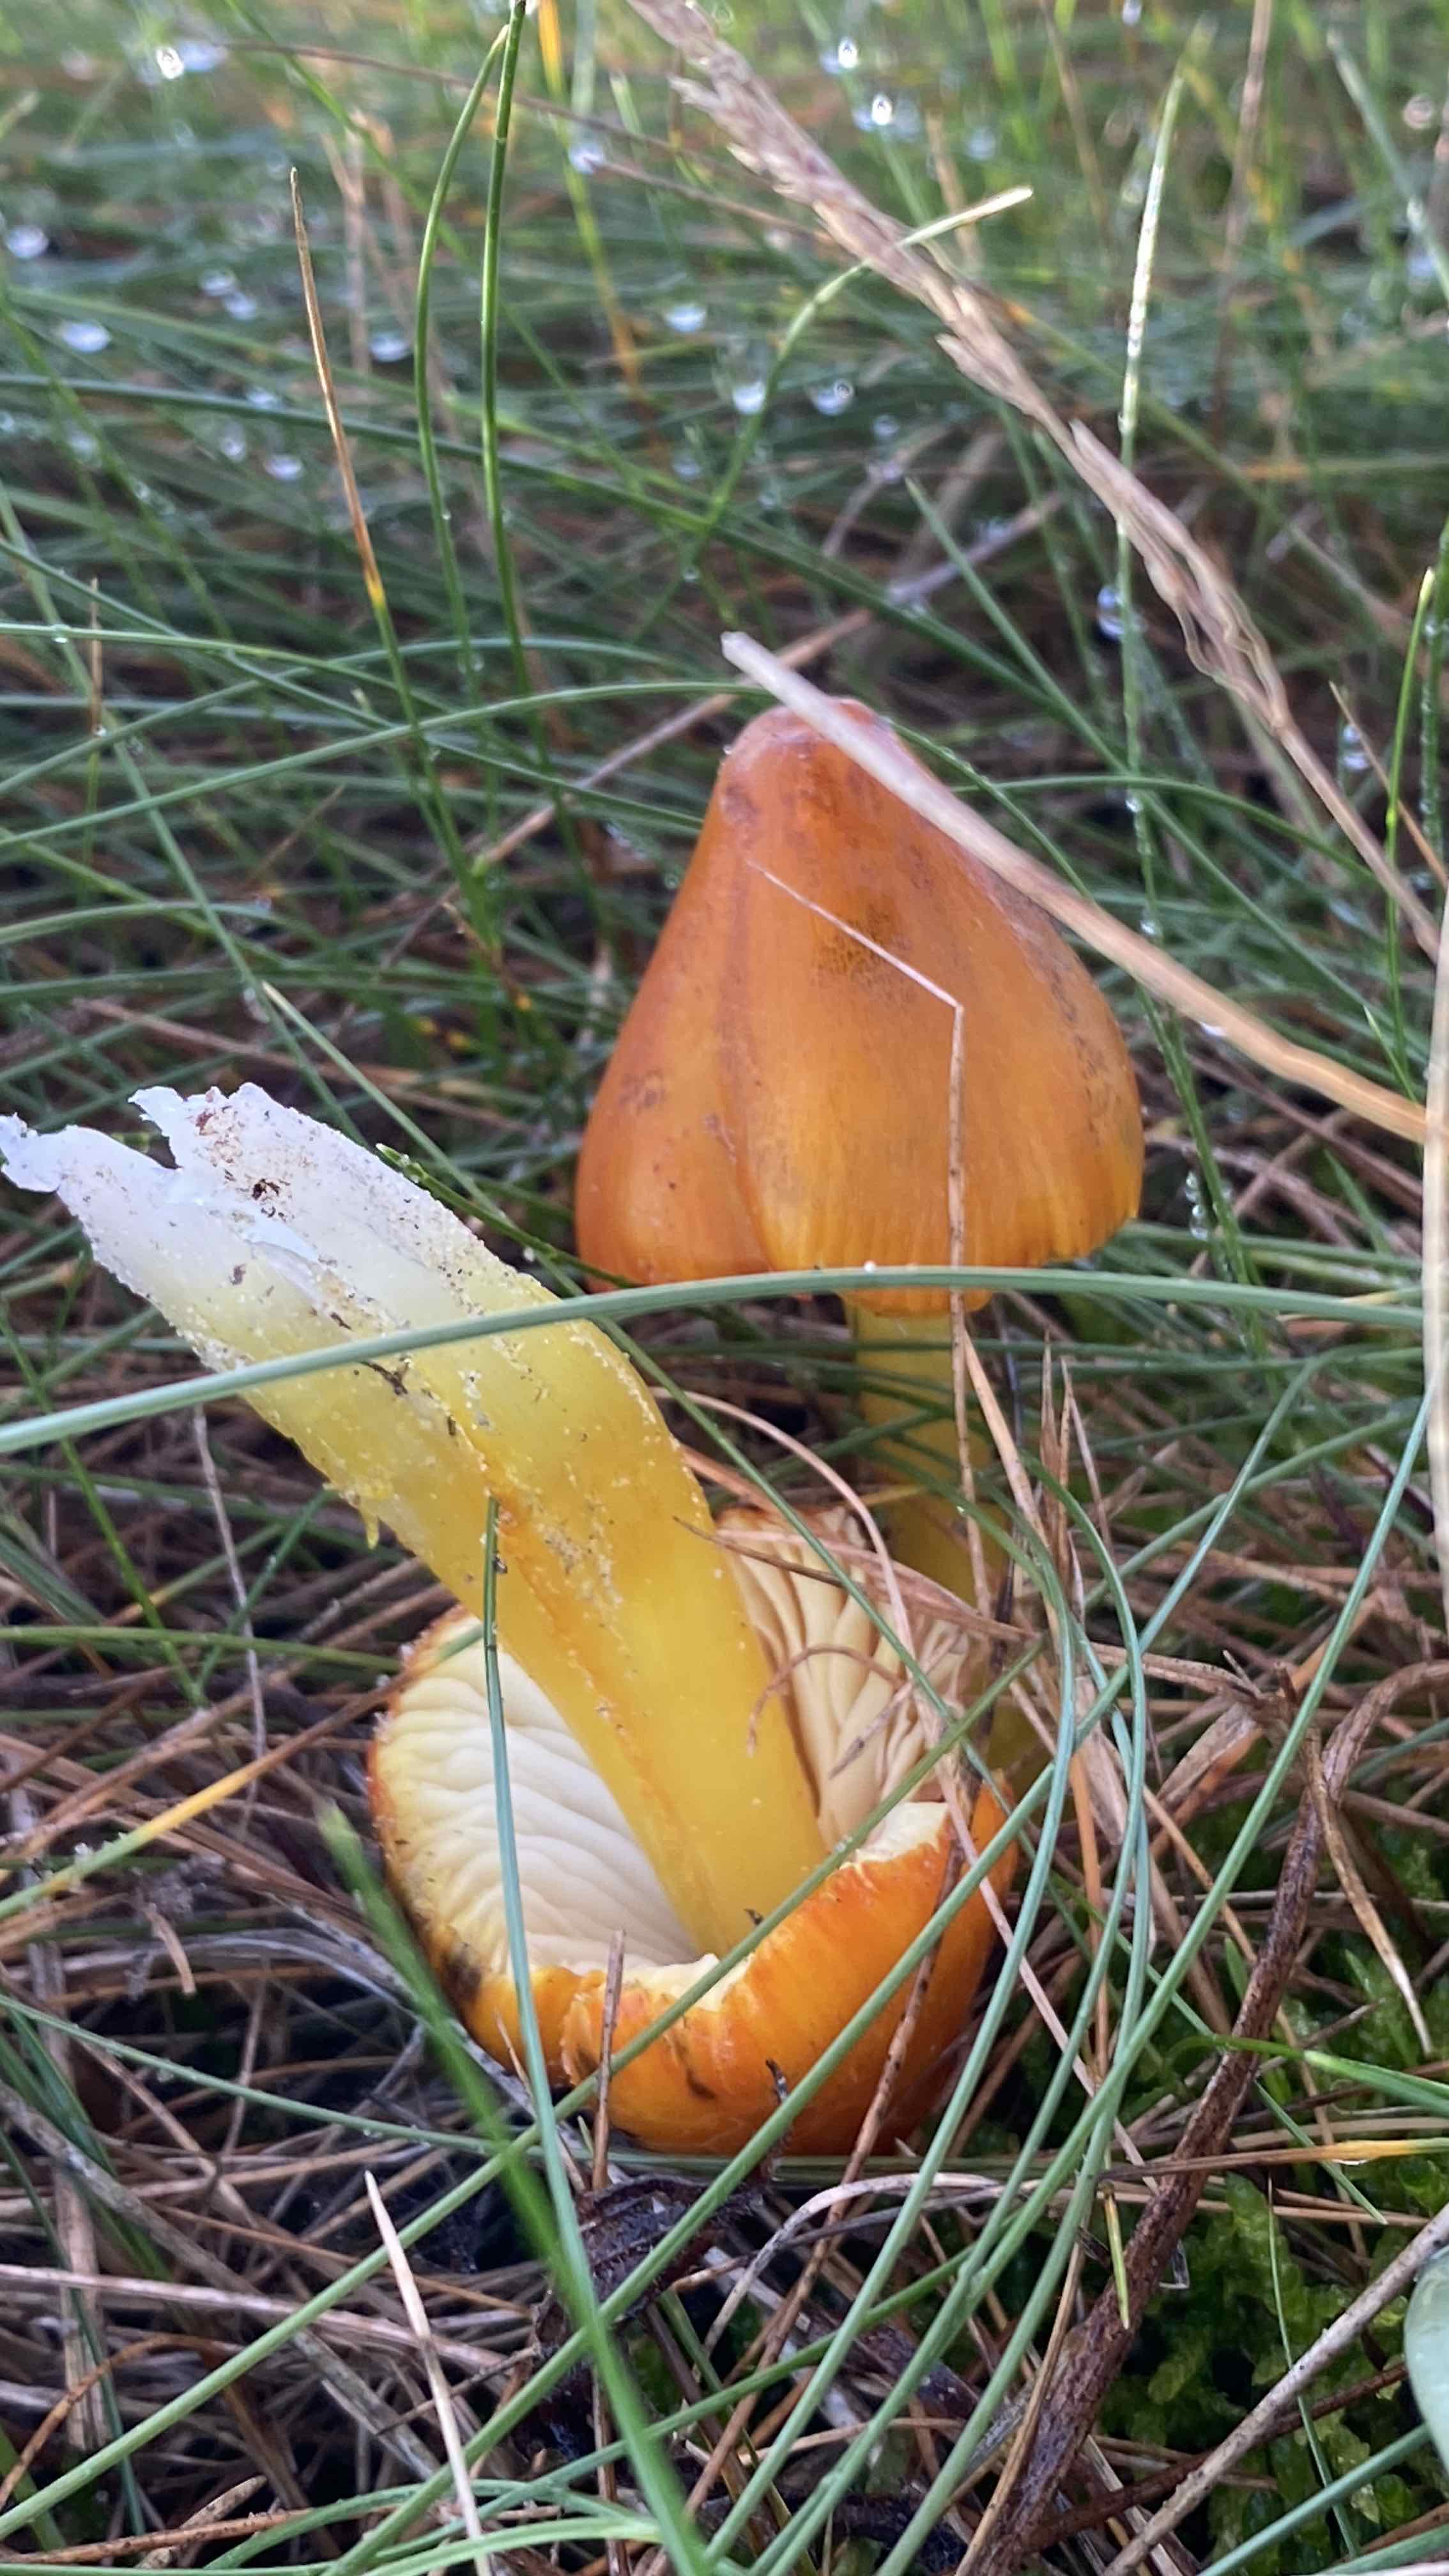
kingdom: Fungi
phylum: Basidiomycota
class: Agaricomycetes
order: Agaricales
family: Hygrophoraceae
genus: Hygrocybe
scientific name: Hygrocybe conica
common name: kegle-vokshat
